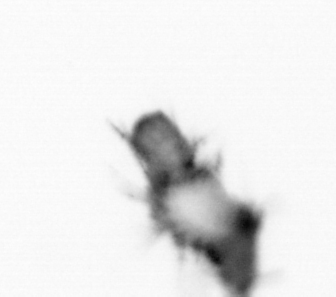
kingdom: Animalia
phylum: Annelida
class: Polychaeta
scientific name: Polychaeta
